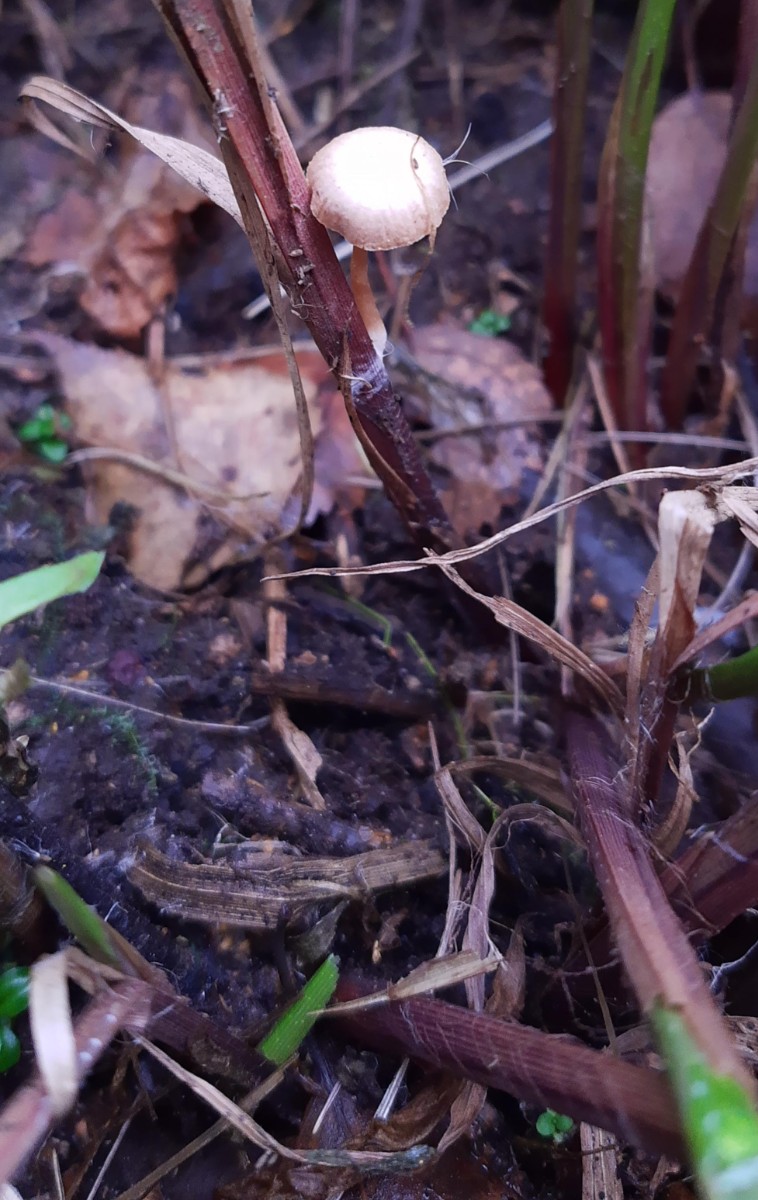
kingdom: Fungi
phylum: Basidiomycota
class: Agaricomycetes
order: Agaricales
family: Tubariaceae
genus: Tubaria
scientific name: Tubaria furfuracea
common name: kliddet fnughat
